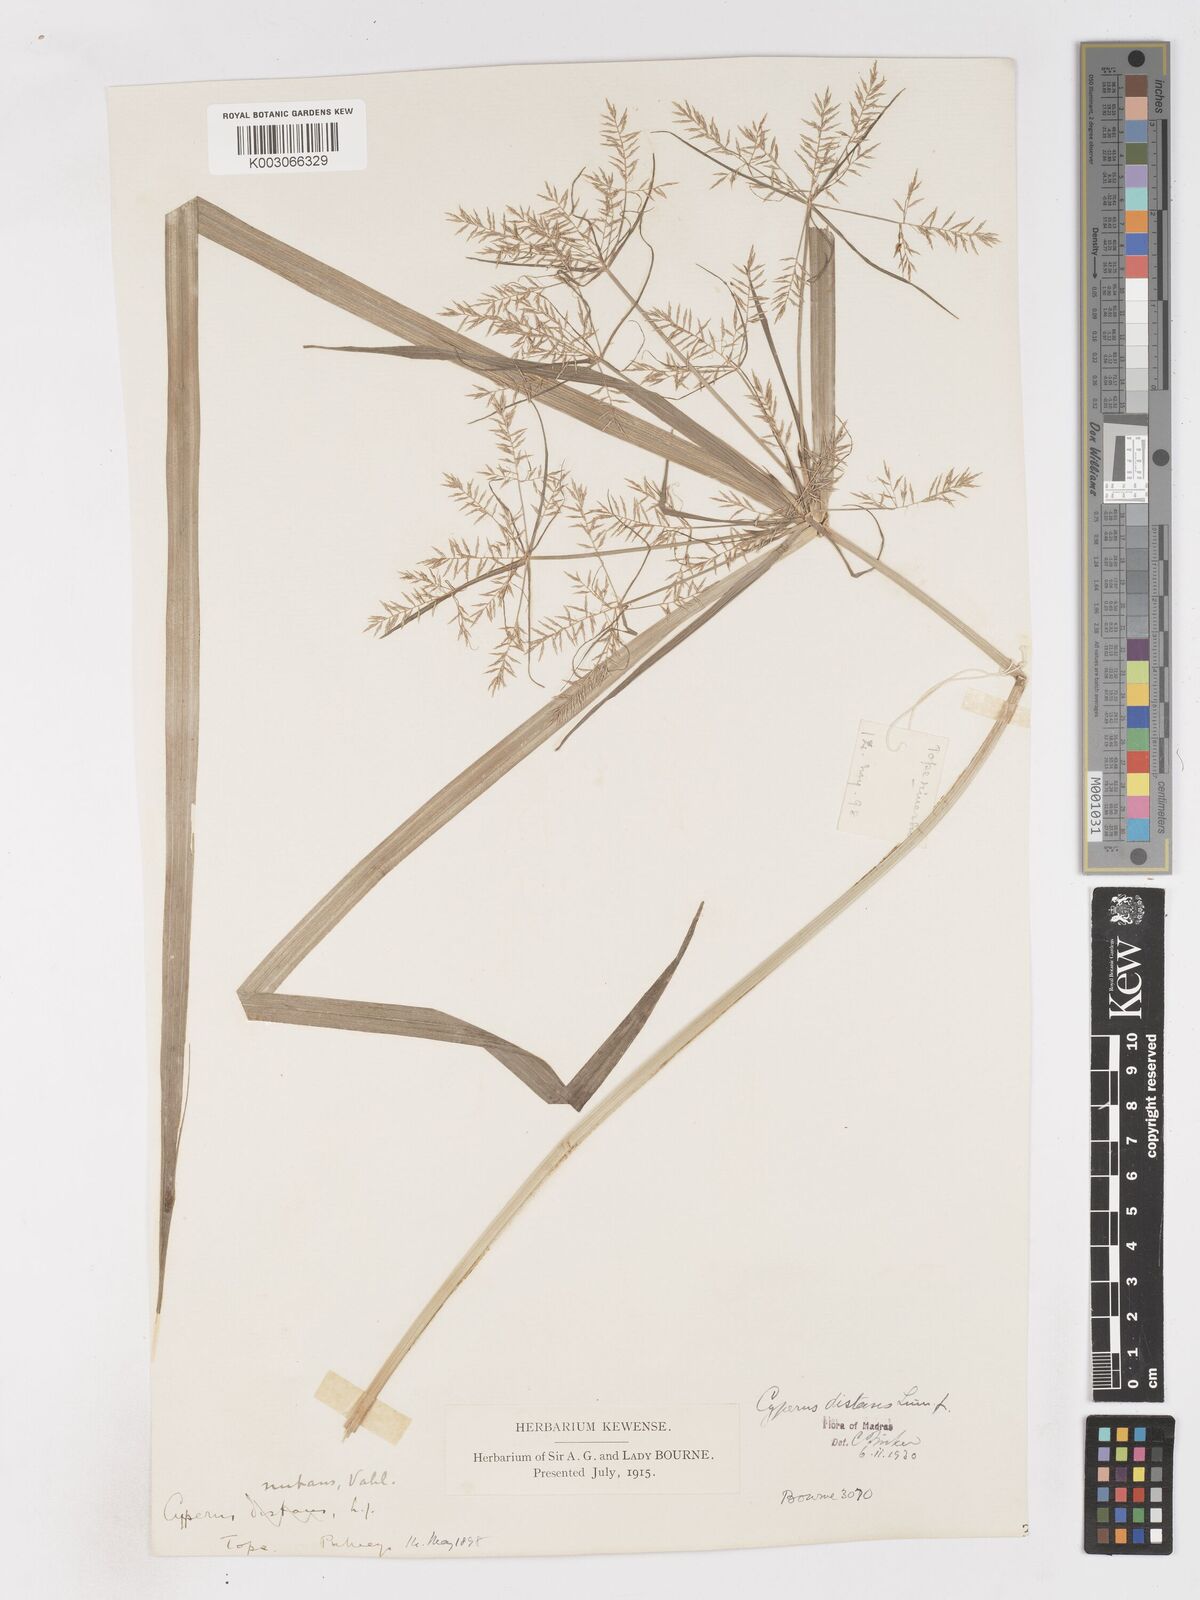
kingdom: Plantae
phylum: Tracheophyta
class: Liliopsida
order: Poales
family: Cyperaceae
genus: Cyperus
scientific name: Cyperus distans
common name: Slender cyperus
